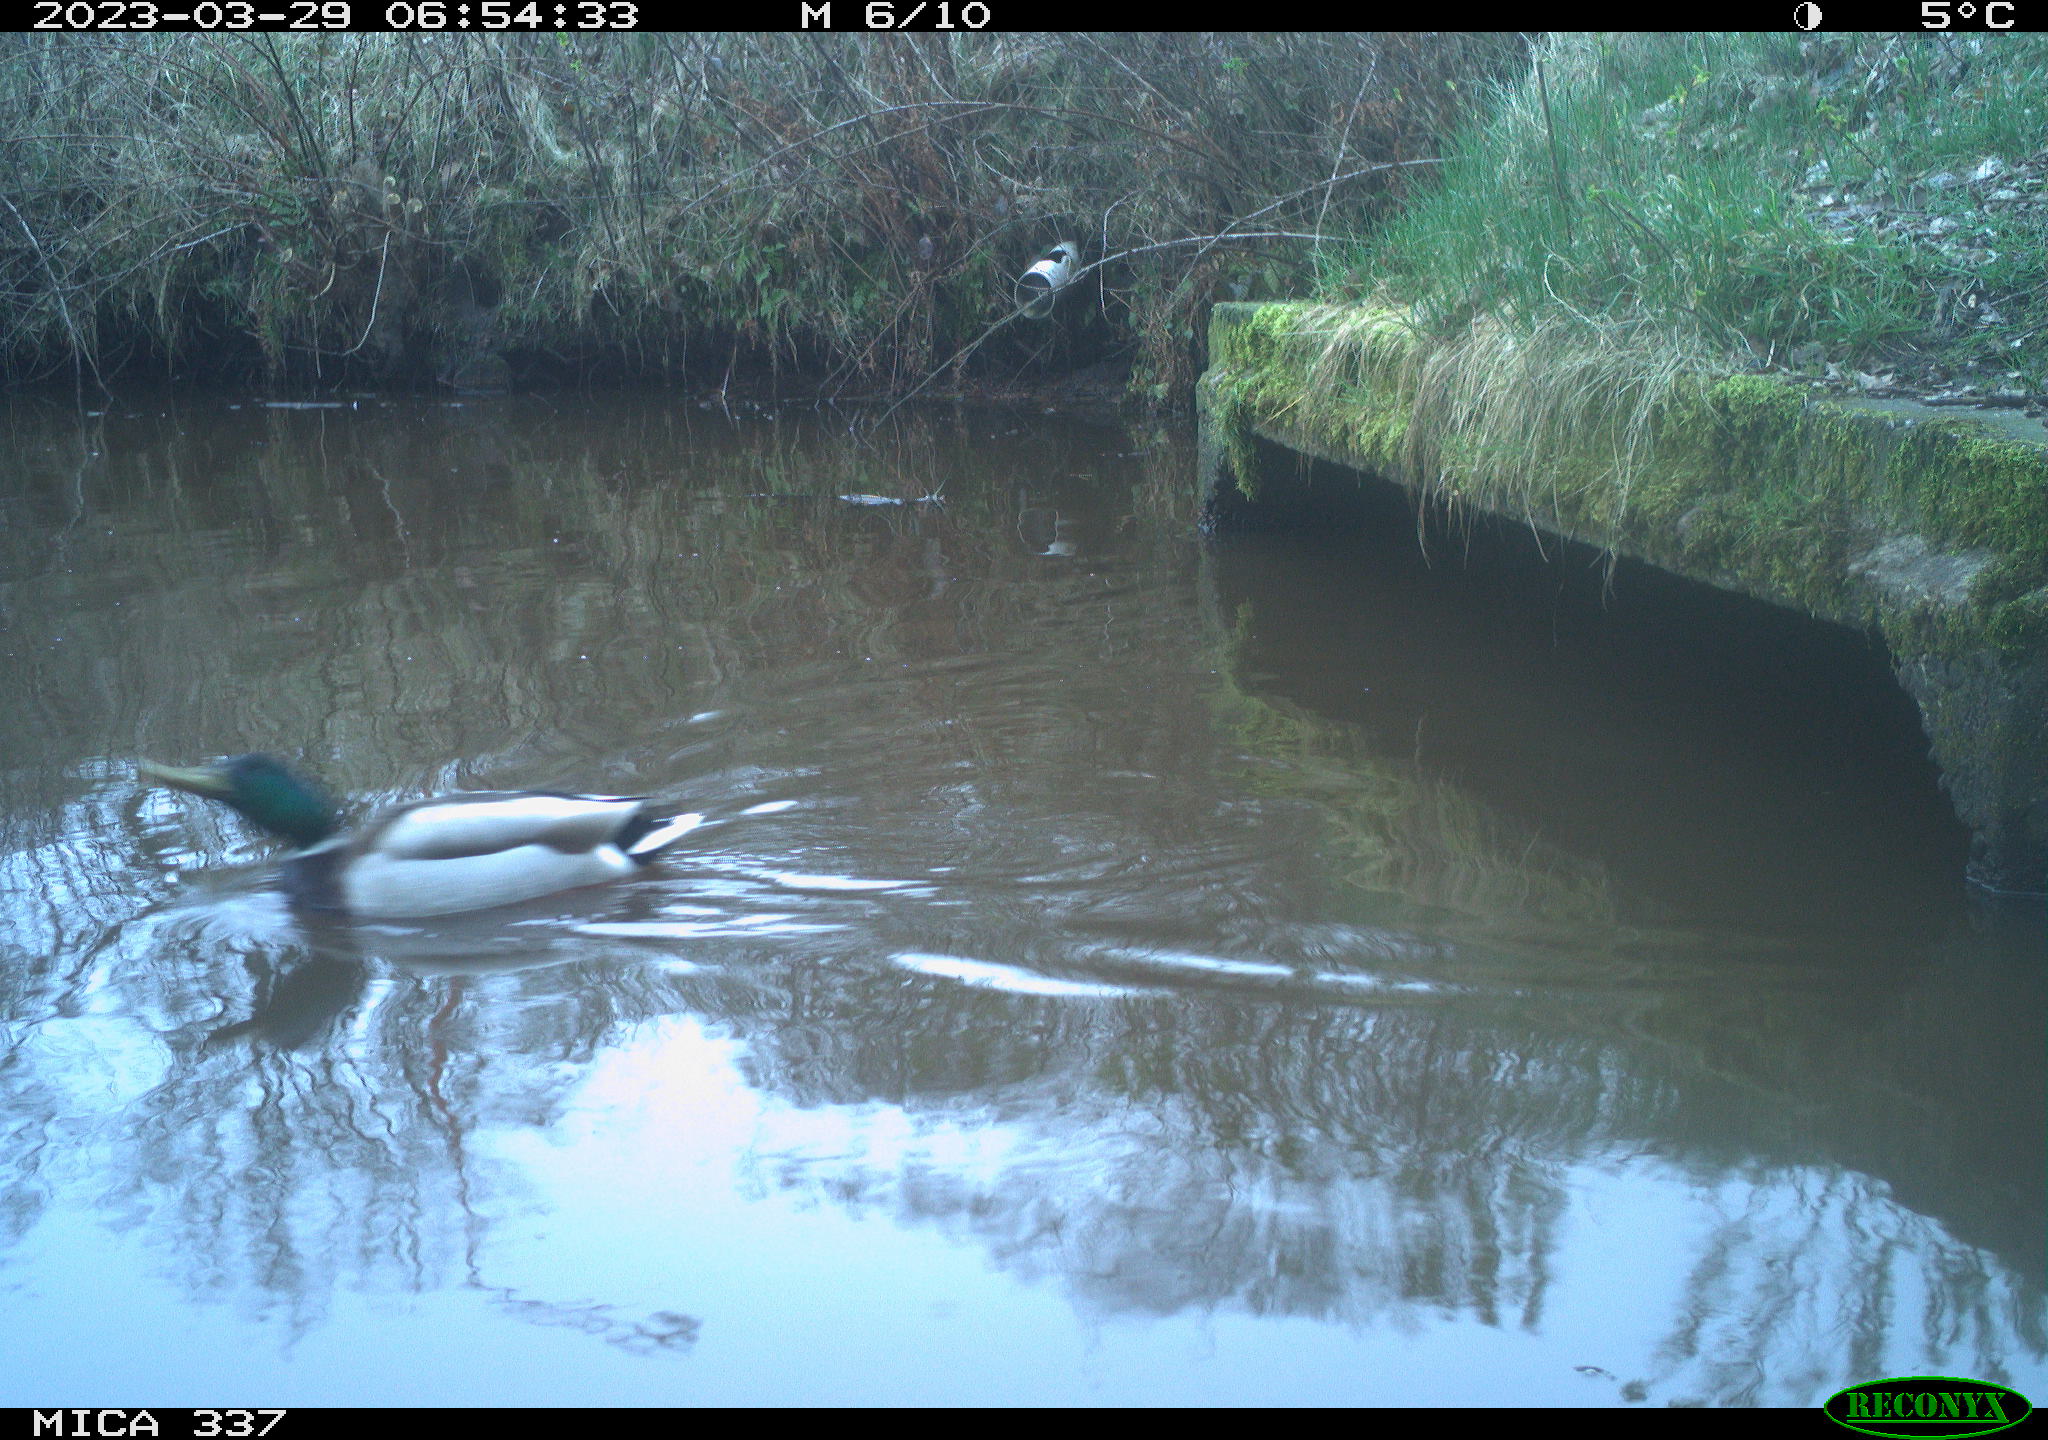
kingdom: Animalia
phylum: Chordata
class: Aves
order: Anseriformes
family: Anatidae
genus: Anas
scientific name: Anas platyrhynchos
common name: Mallard
